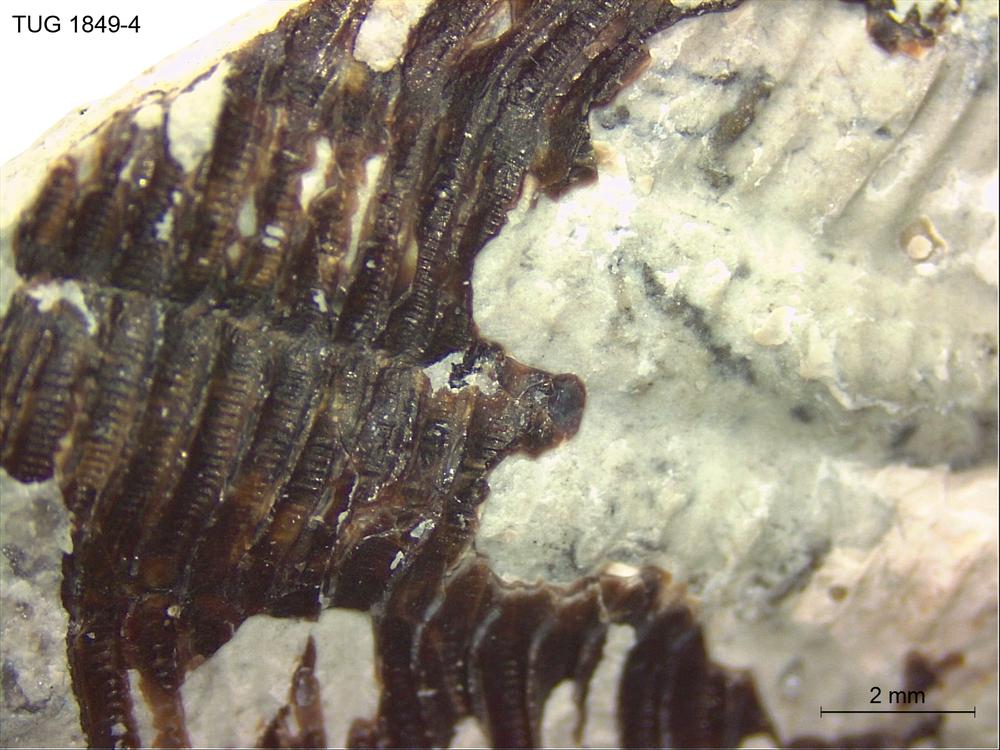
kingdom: Animalia
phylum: Cnidaria
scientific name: Cnidaria
